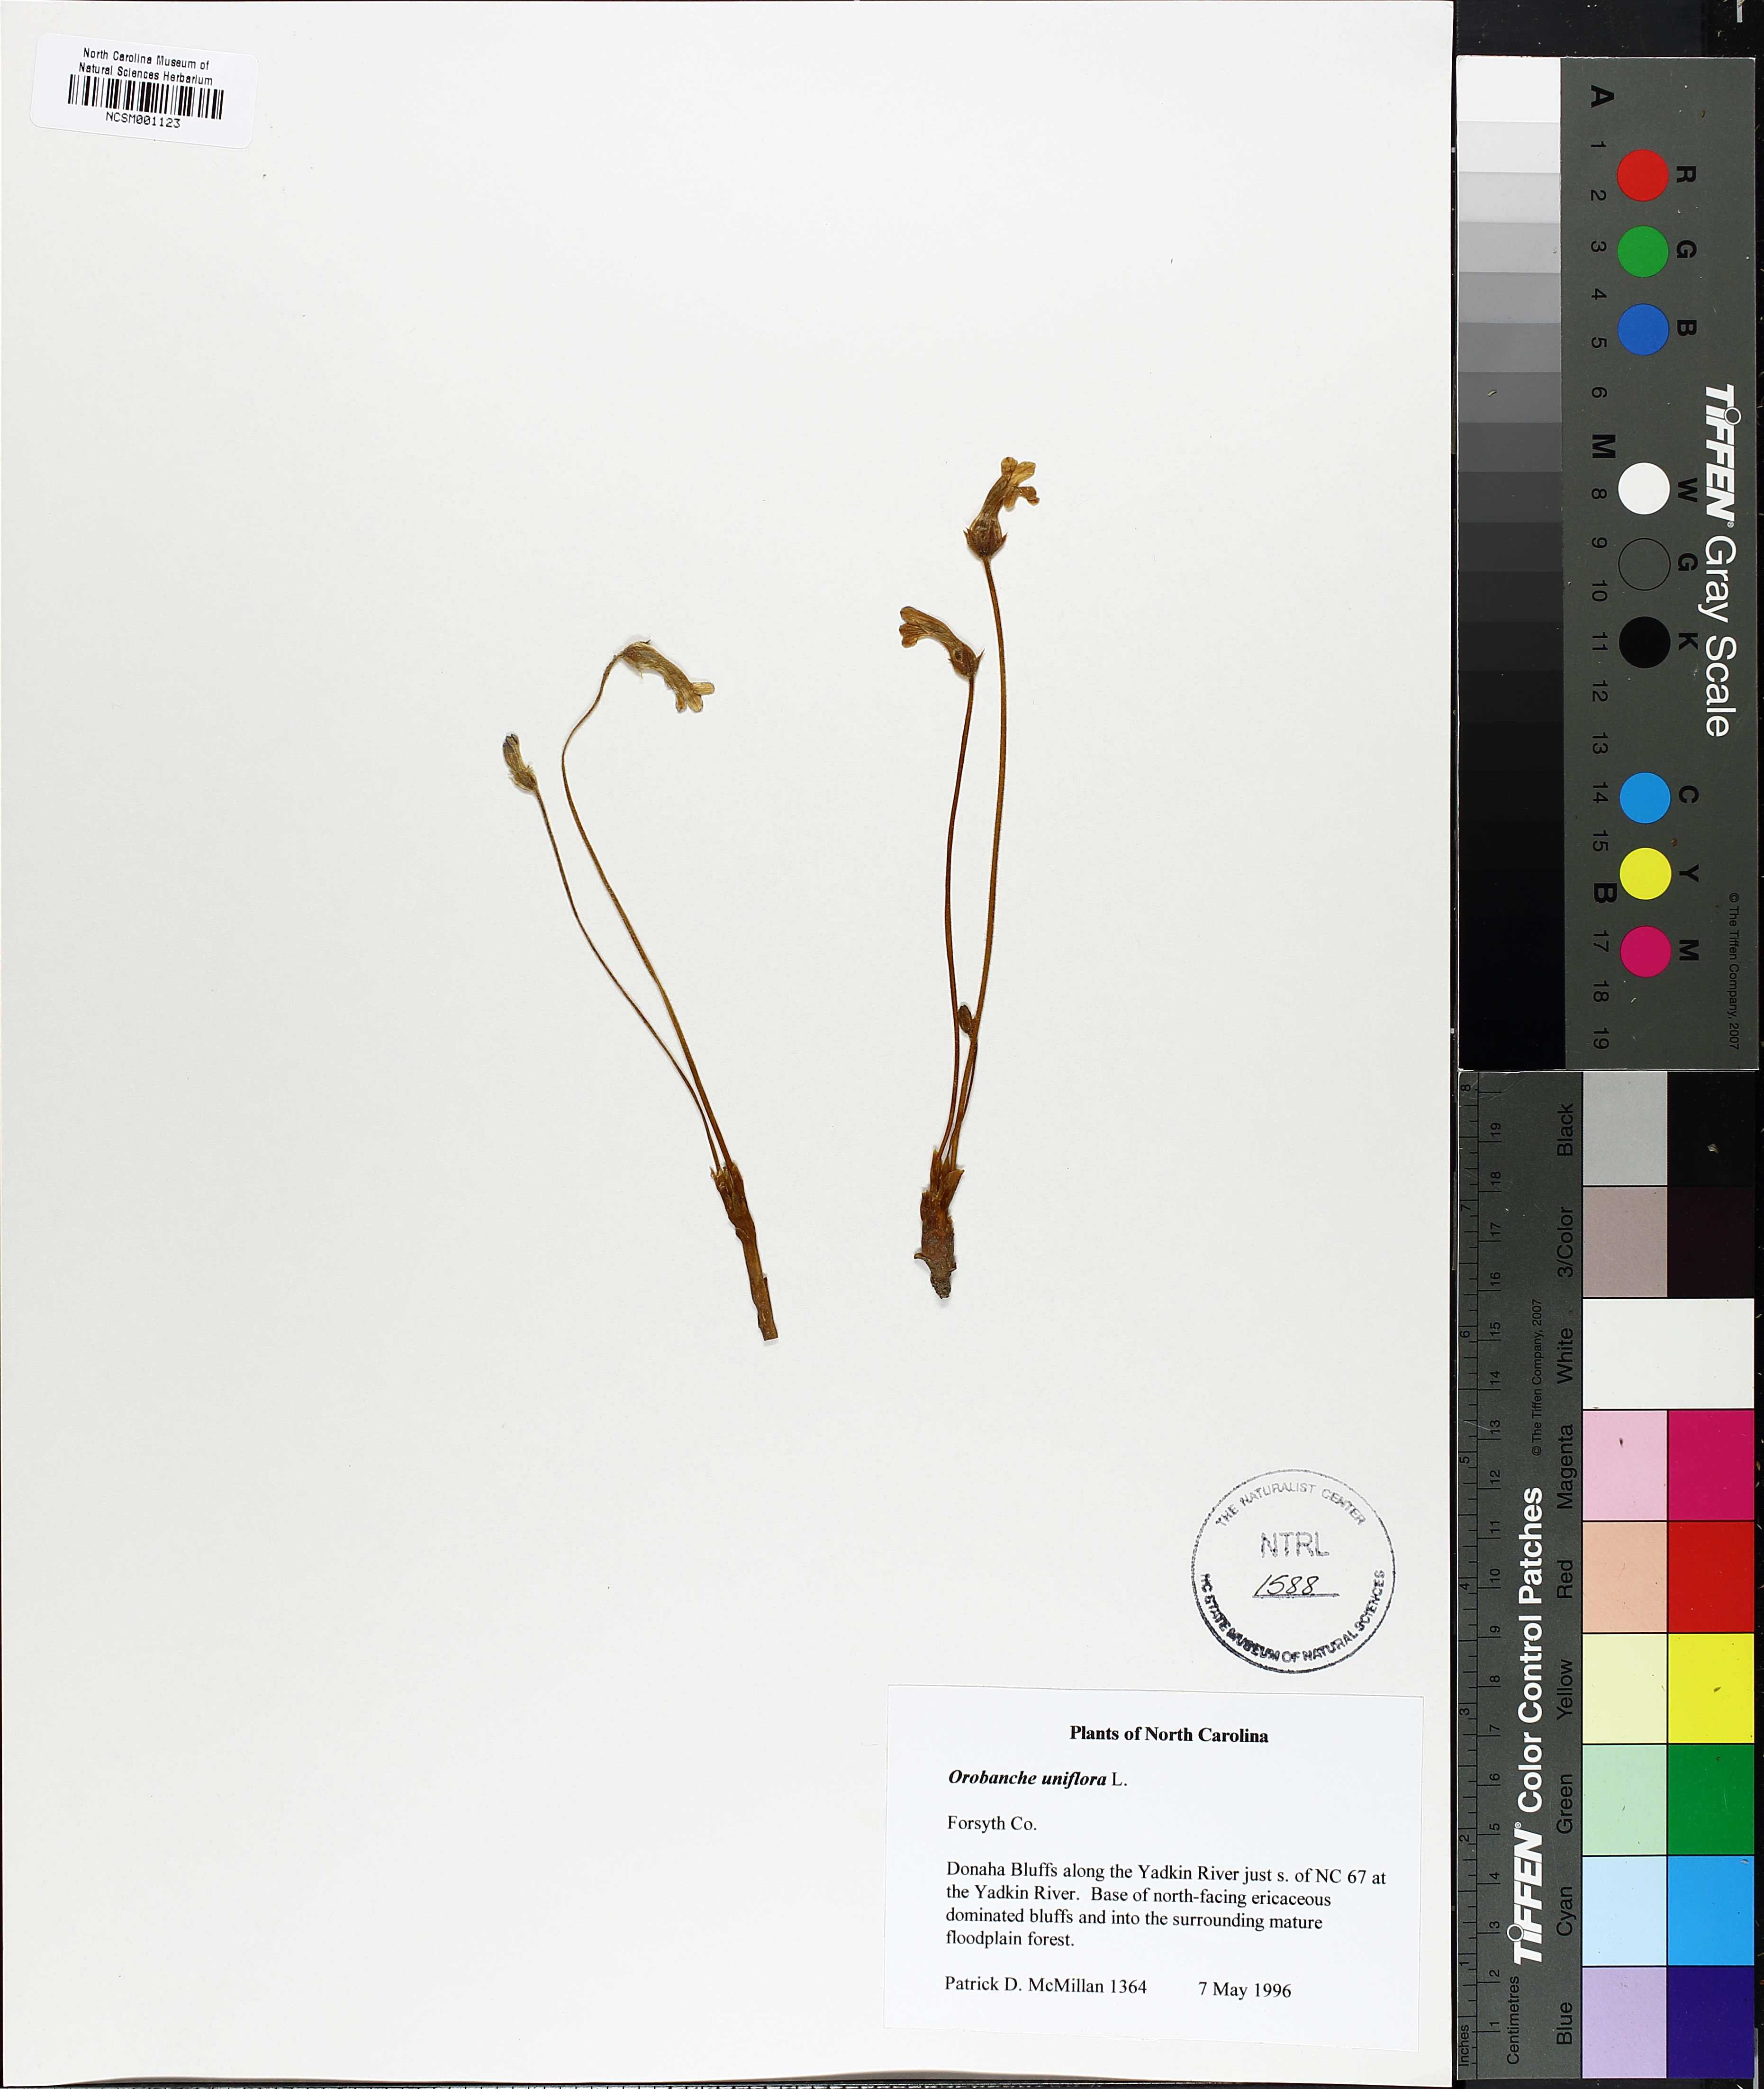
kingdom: Plantae
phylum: Tracheophyta
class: Magnoliopsida
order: Lamiales
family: Orobanchaceae
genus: Aphyllon
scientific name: Aphyllon uniflorum
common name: One-flowered broomrape
